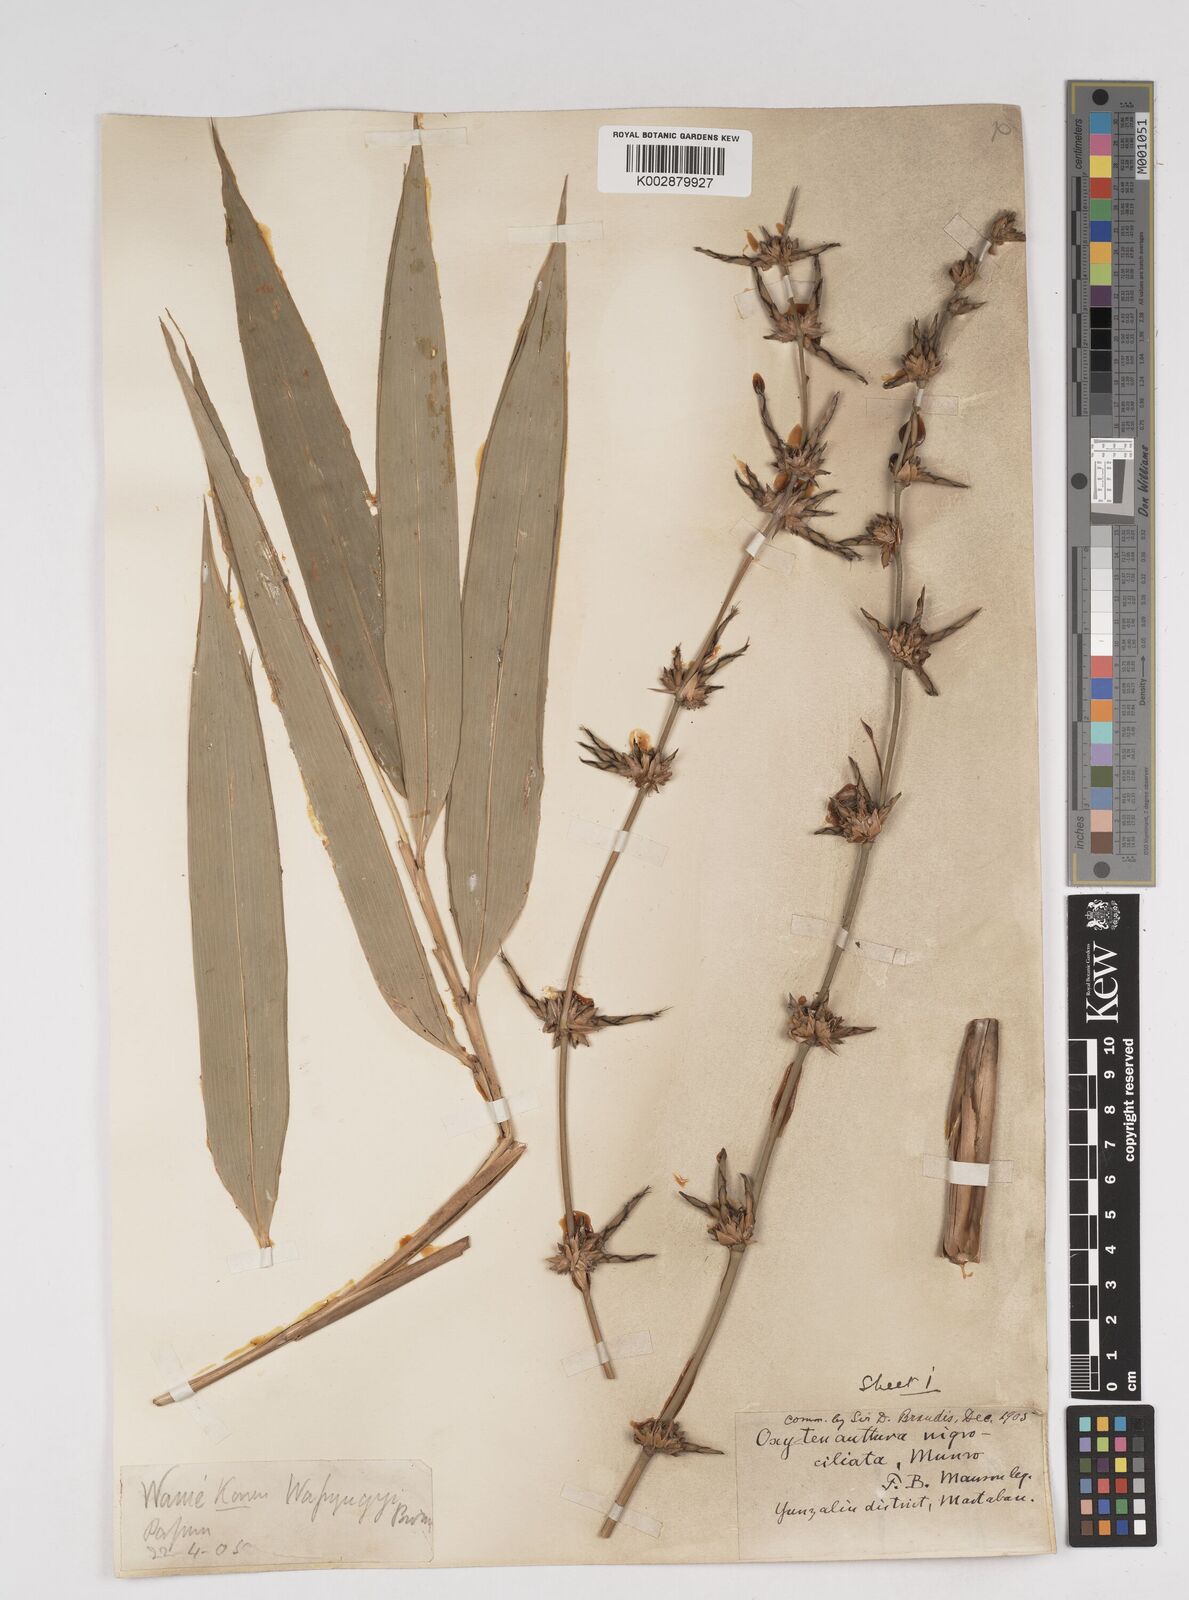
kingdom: Plantae
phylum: Tracheophyta
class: Liliopsida
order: Poales
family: Poaceae
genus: Gigantochloa
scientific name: Gigantochloa nigrociliata
